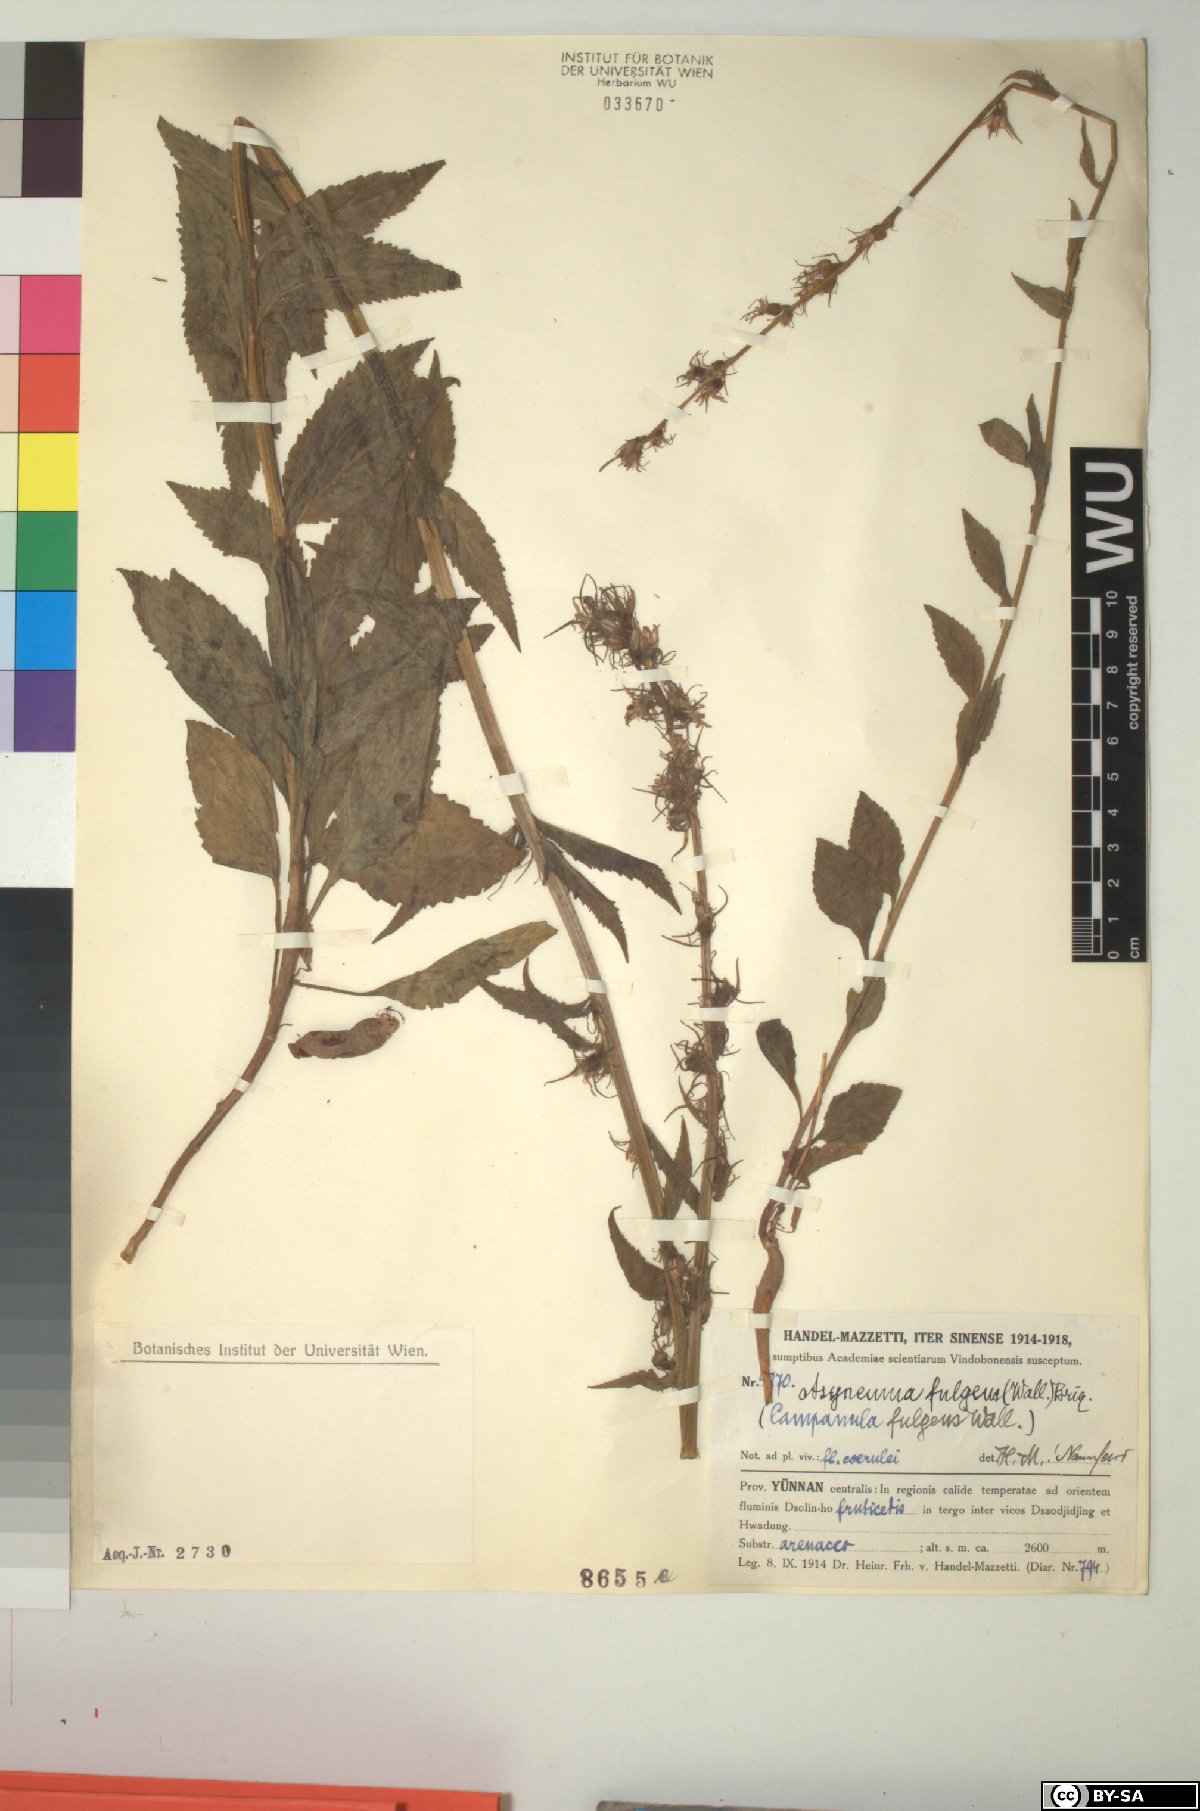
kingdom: Plantae
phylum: Tracheophyta
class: Magnoliopsida
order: Asterales
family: Campanulaceae
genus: Asyneuma
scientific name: Asyneuma fulgens
